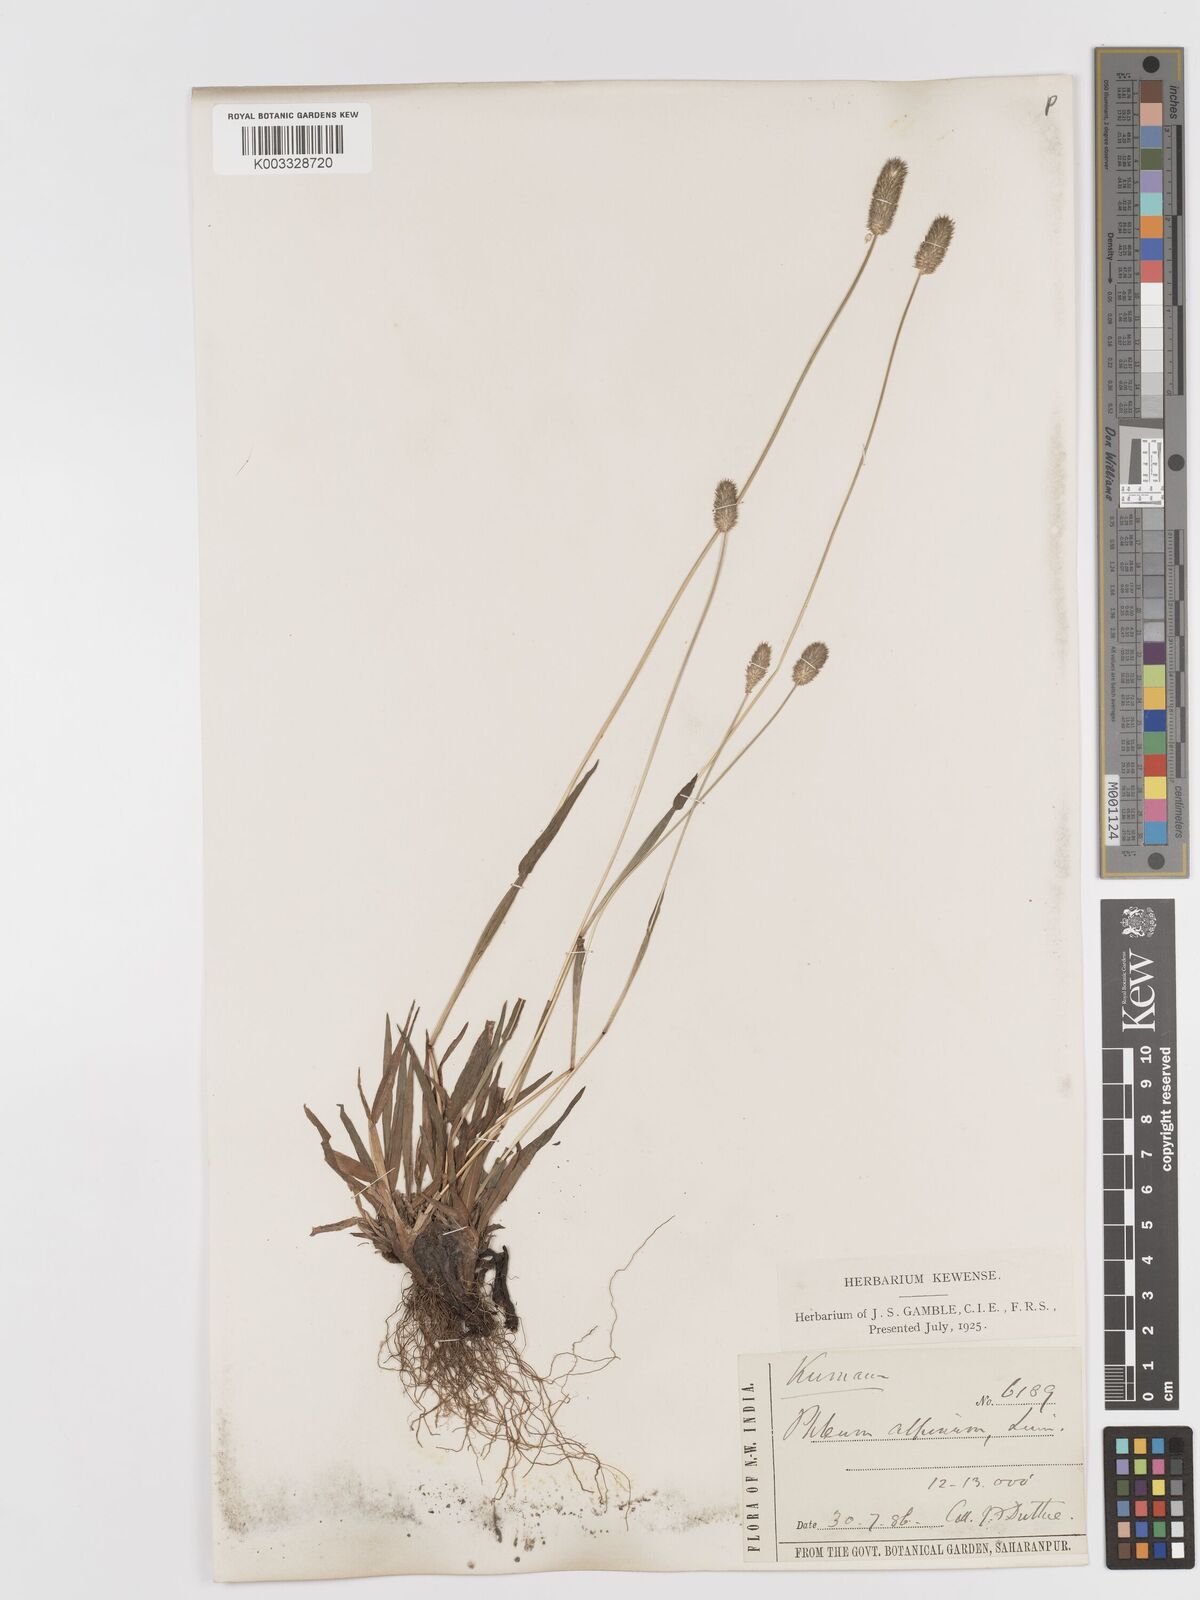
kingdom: Plantae
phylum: Tracheophyta
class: Liliopsida
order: Poales
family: Poaceae
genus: Phleum
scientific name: Phleum alpinum
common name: Alpine cat's-tail
